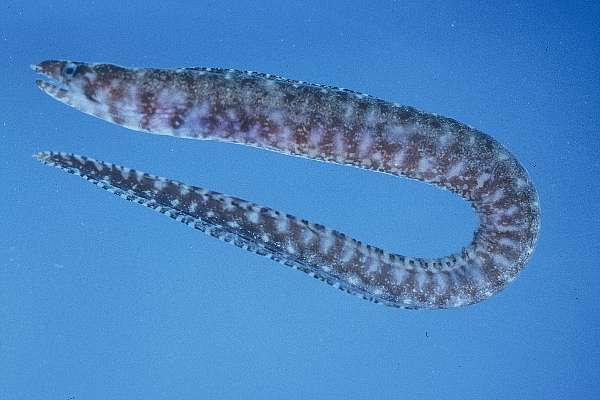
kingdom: Animalia
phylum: Chordata
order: Anguilliformes
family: Muraenidae
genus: Gymnothorax
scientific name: Gymnothorax robinsi
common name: Pygmy moray
